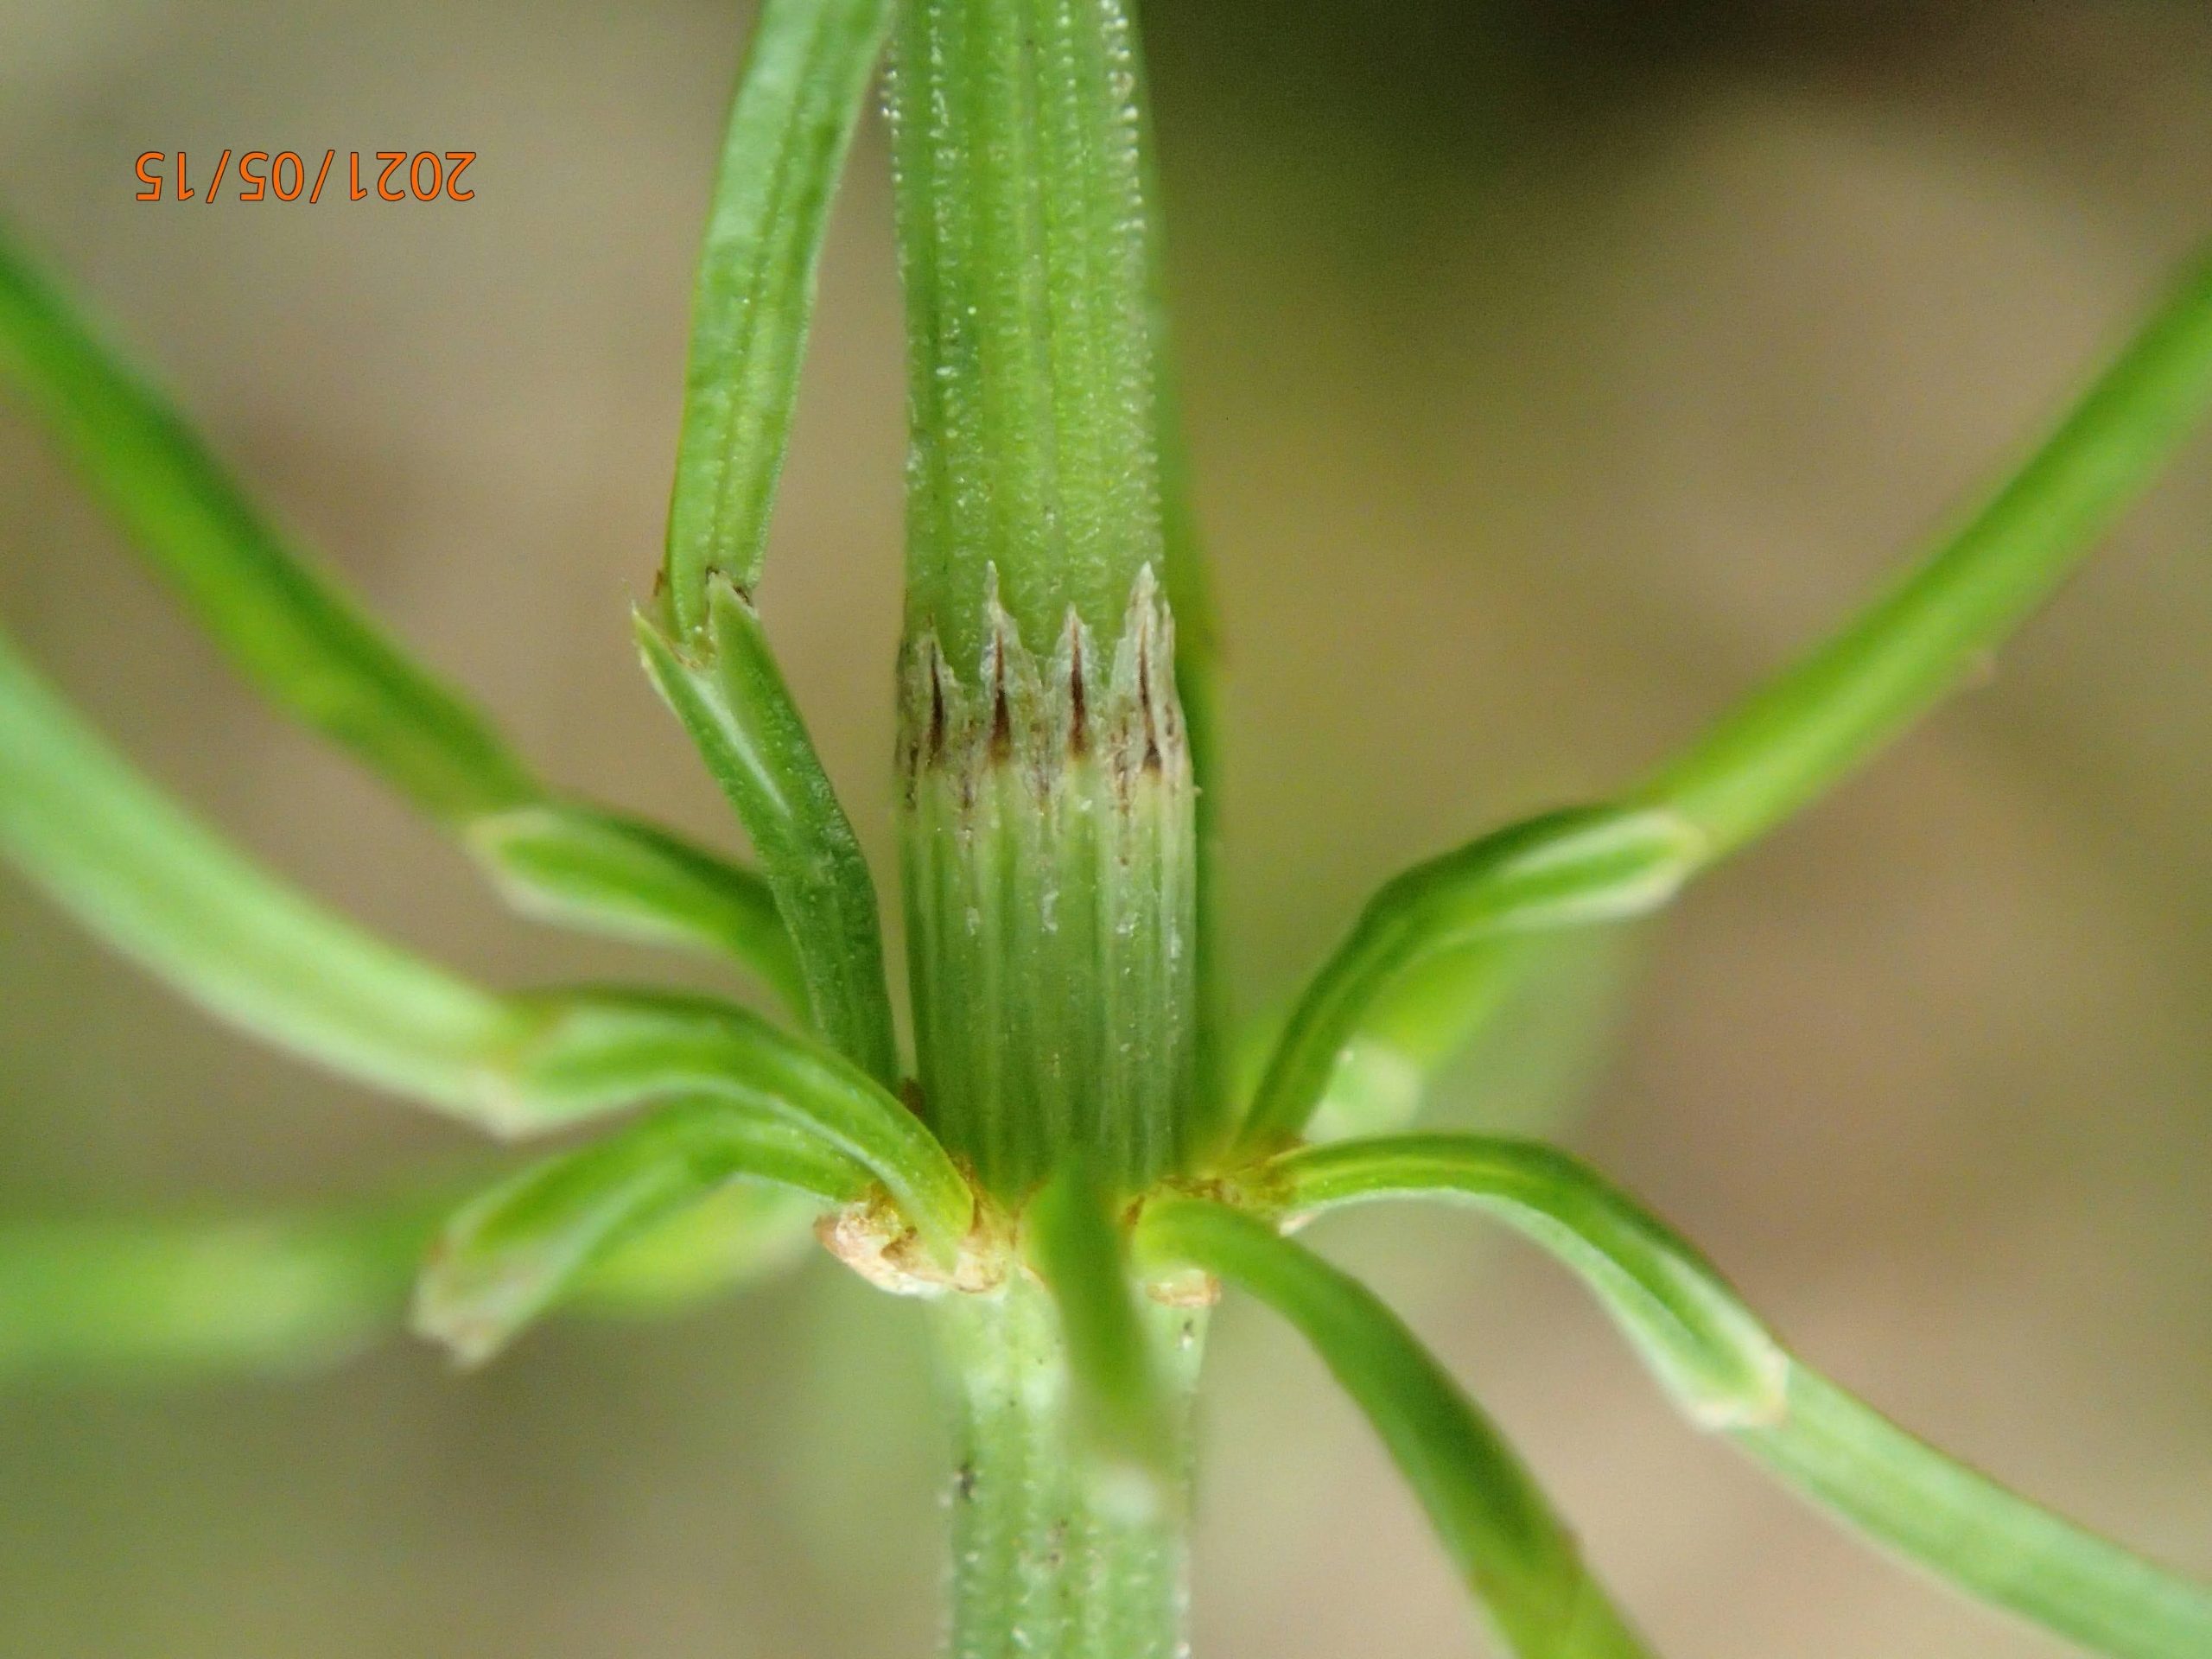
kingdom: Plantae
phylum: Tracheophyta
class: Polypodiopsida
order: Equisetales
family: Equisetaceae
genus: Equisetum
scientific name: Equisetum pratense
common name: Lund-padderok
